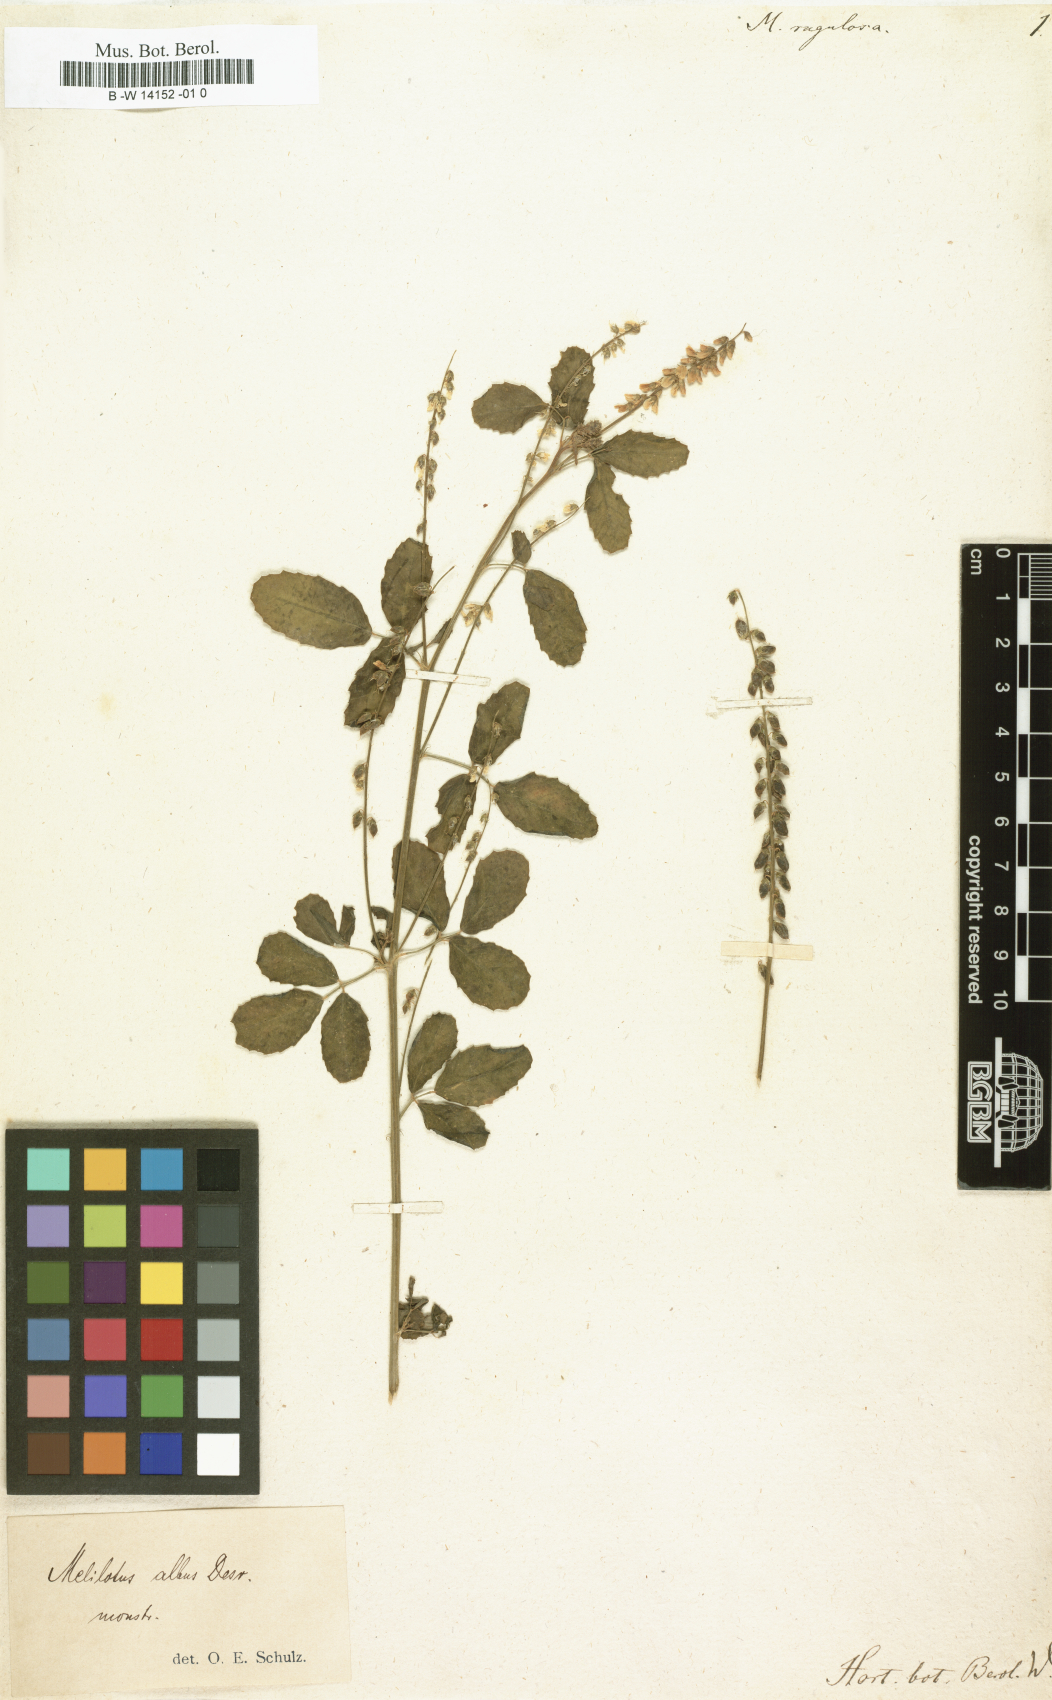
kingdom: Plantae
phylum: Tracheophyta
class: Magnoliopsida
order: Fabales
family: Fabaceae
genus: Melilotus
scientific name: Melilotus
